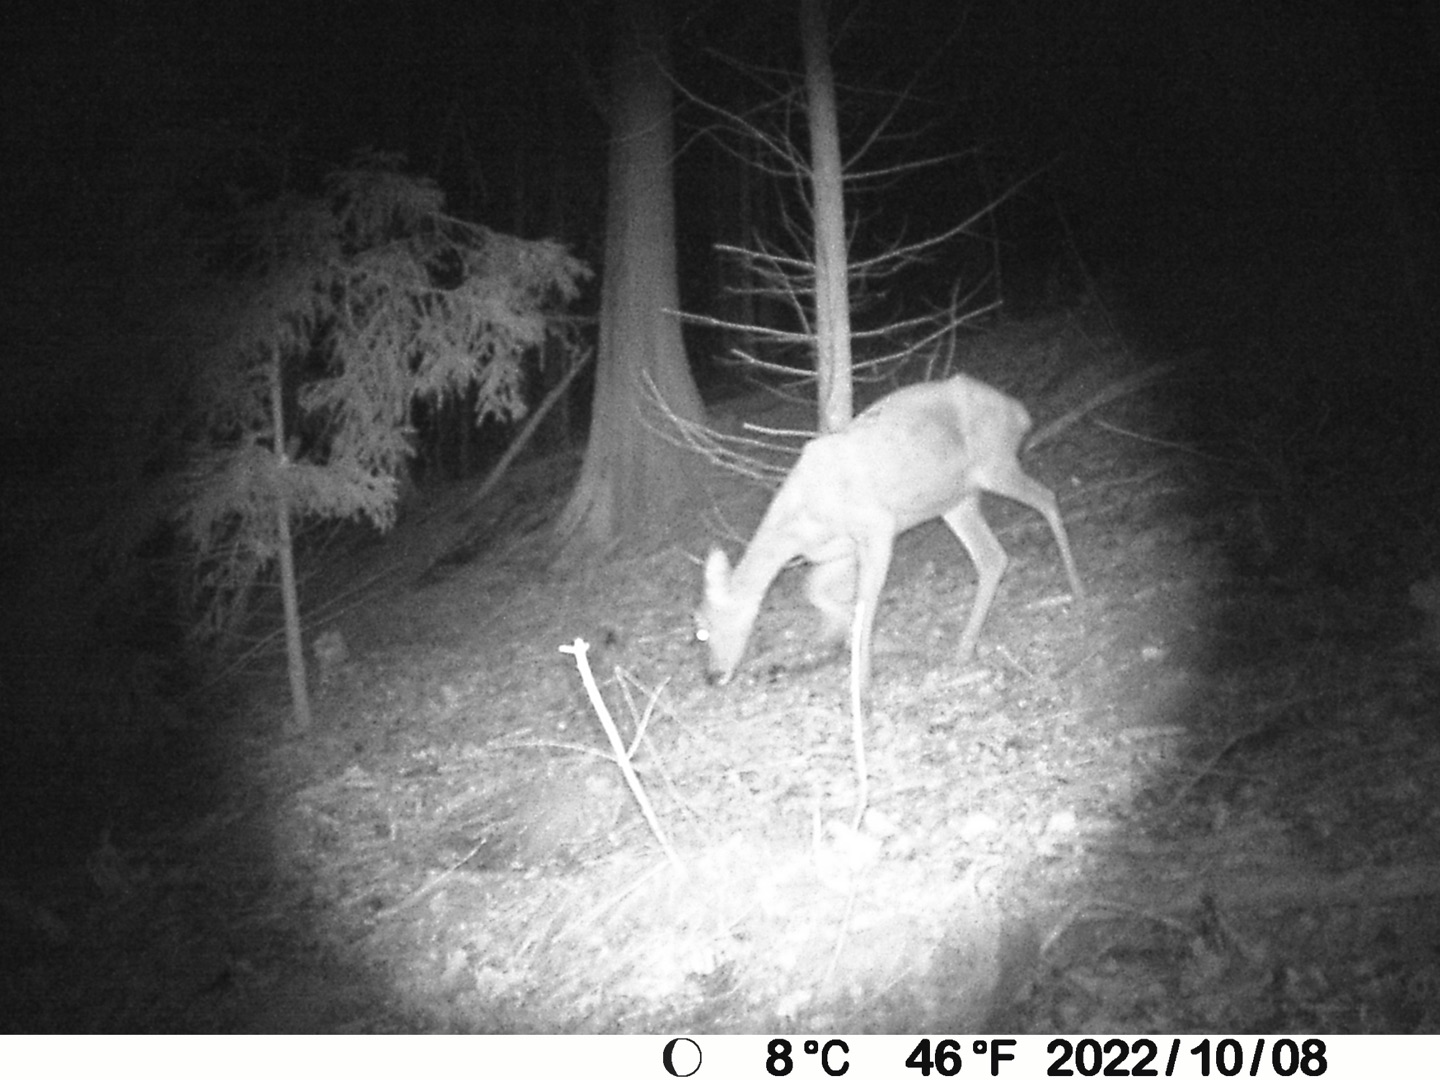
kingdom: Animalia
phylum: Chordata
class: Mammalia
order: Artiodactyla
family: Cervidae
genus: Capreolus
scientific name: Capreolus capreolus
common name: Rådyr
